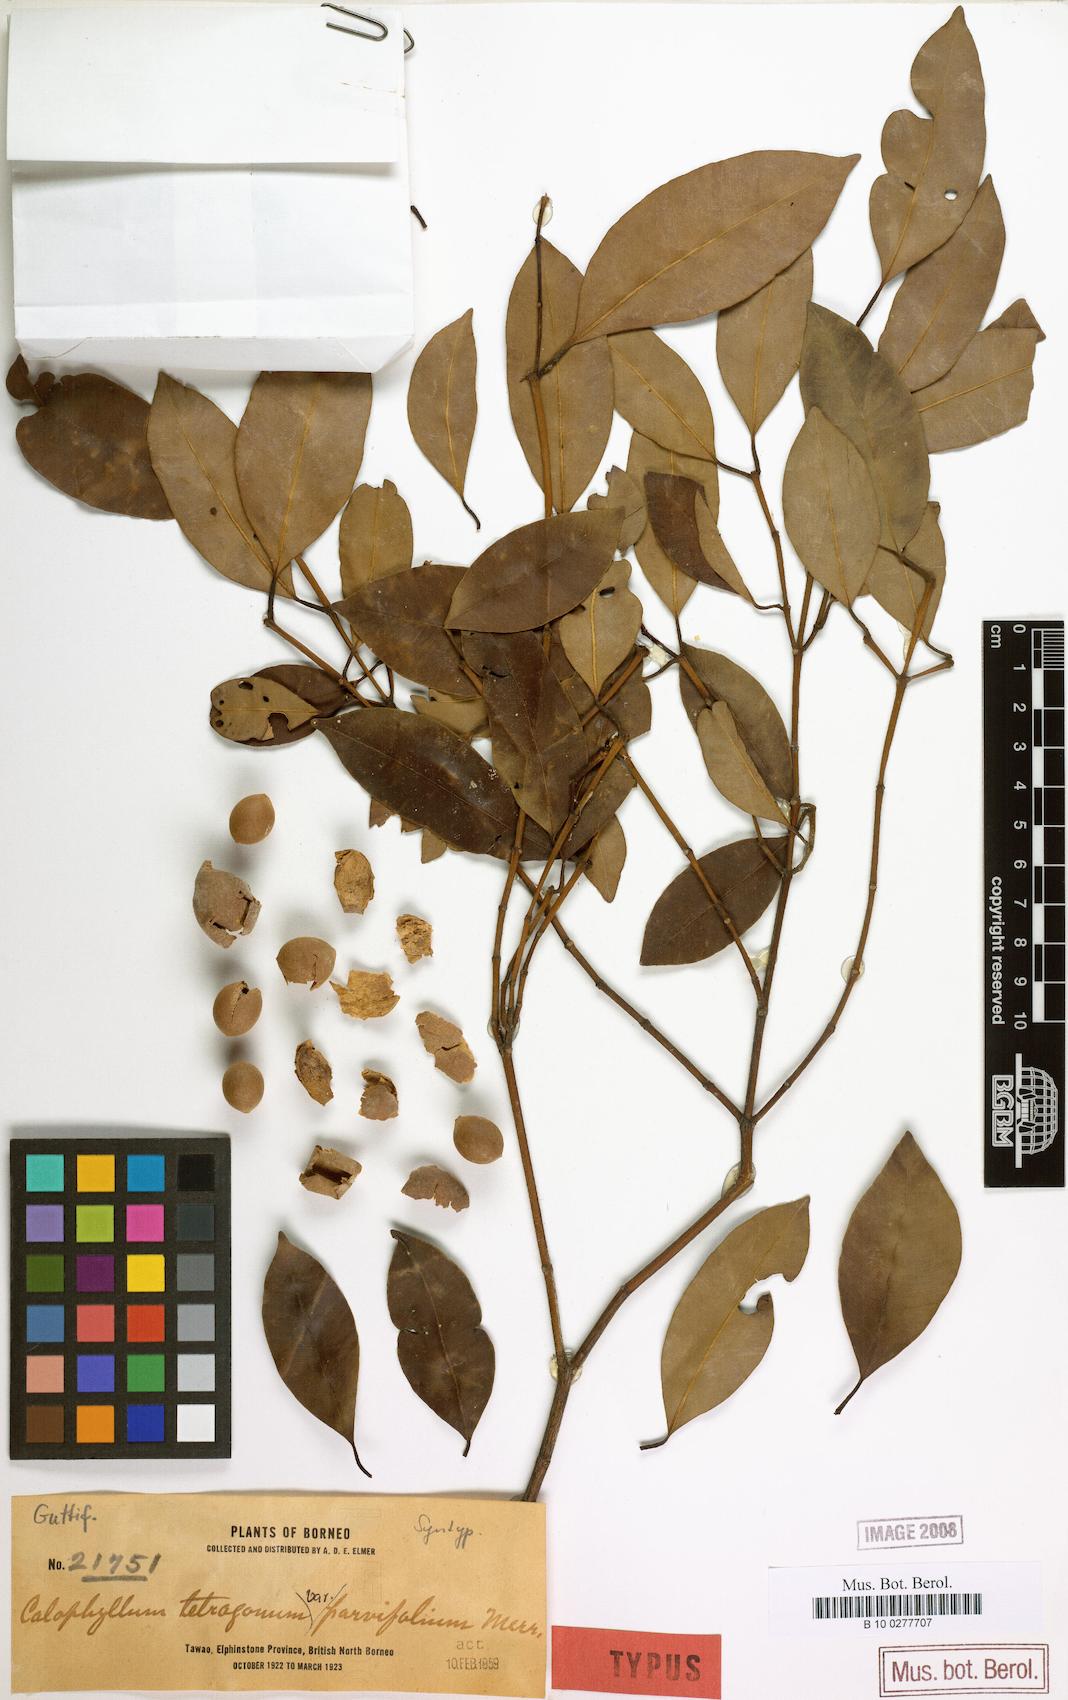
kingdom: Plantae
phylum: Tracheophyta
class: Magnoliopsida
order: Malpighiales
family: Calophyllaceae
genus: Calophyllum
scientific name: Calophyllum gracilipes
